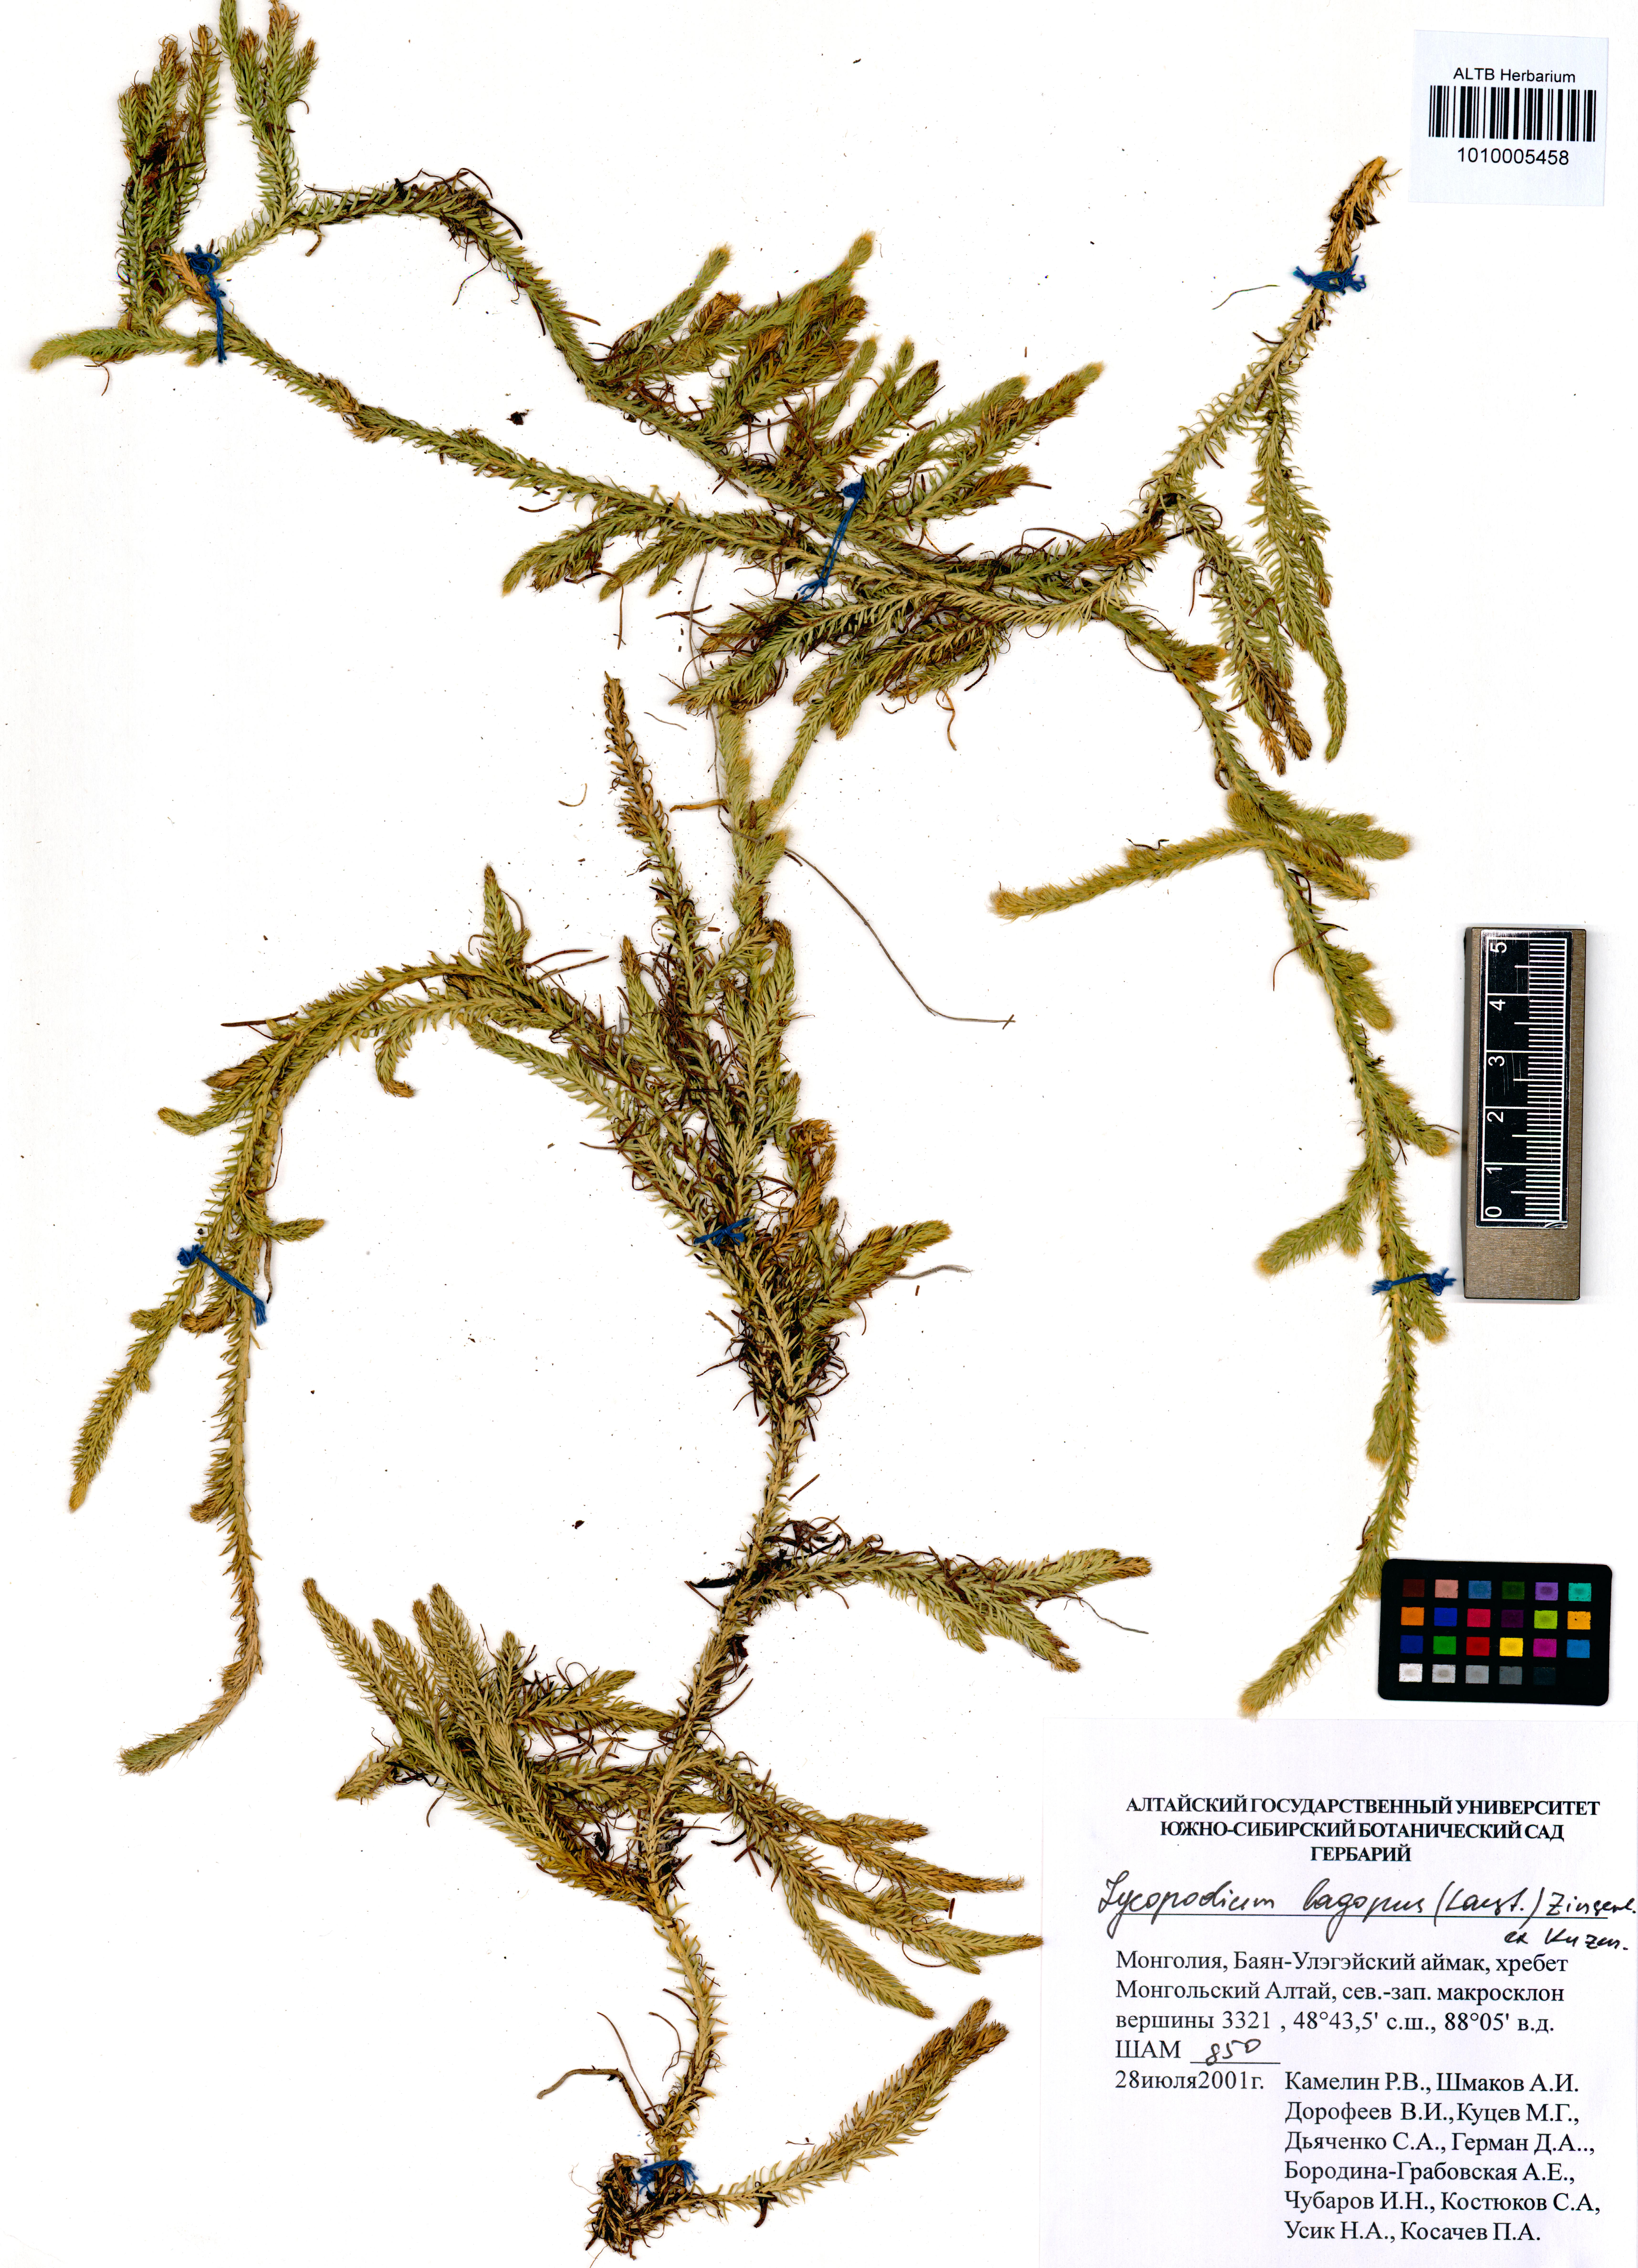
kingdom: Plantae
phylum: Tracheophyta
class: Lycopodiopsida
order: Lycopodiales
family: Lycopodiaceae
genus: Lycopodium
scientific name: Lycopodium lagopus
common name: One-cone clubmoss
